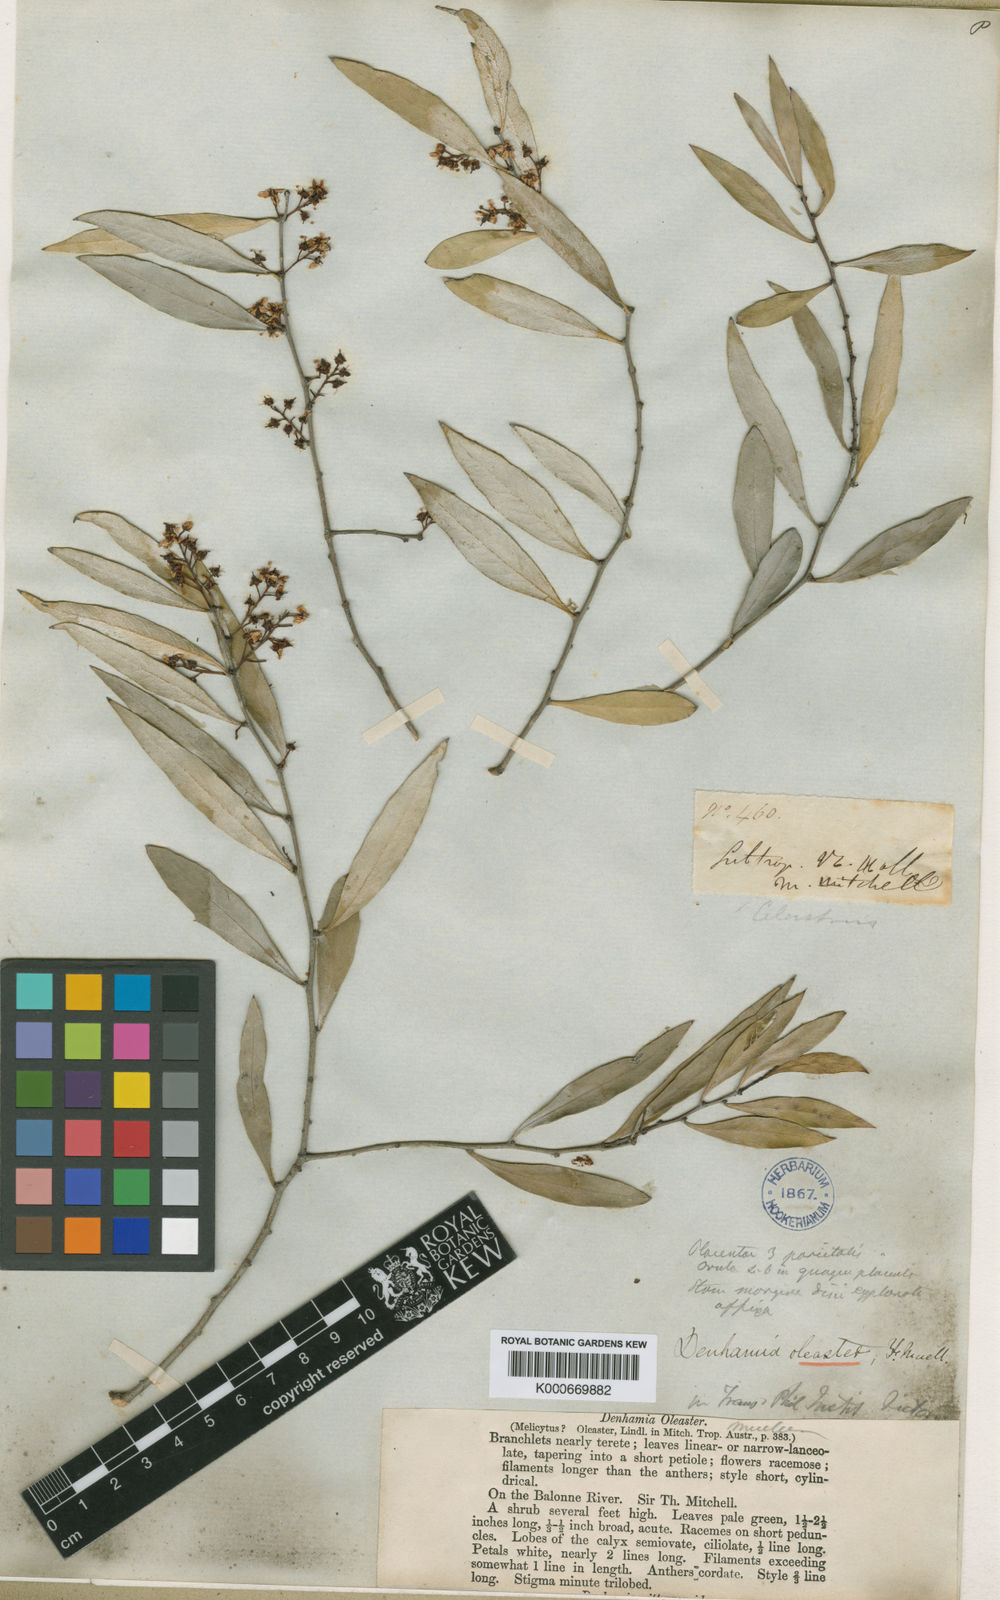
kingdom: Plantae
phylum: Tracheophyta
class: Magnoliopsida
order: Celastrales
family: Celastraceae
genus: Denhamia
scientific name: Denhamia oleaster
